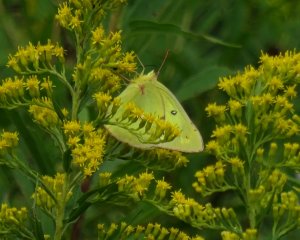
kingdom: Animalia
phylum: Arthropoda
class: Insecta
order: Lepidoptera
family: Pieridae
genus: Colias
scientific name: Colias philodice
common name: Clouded Sulphur
